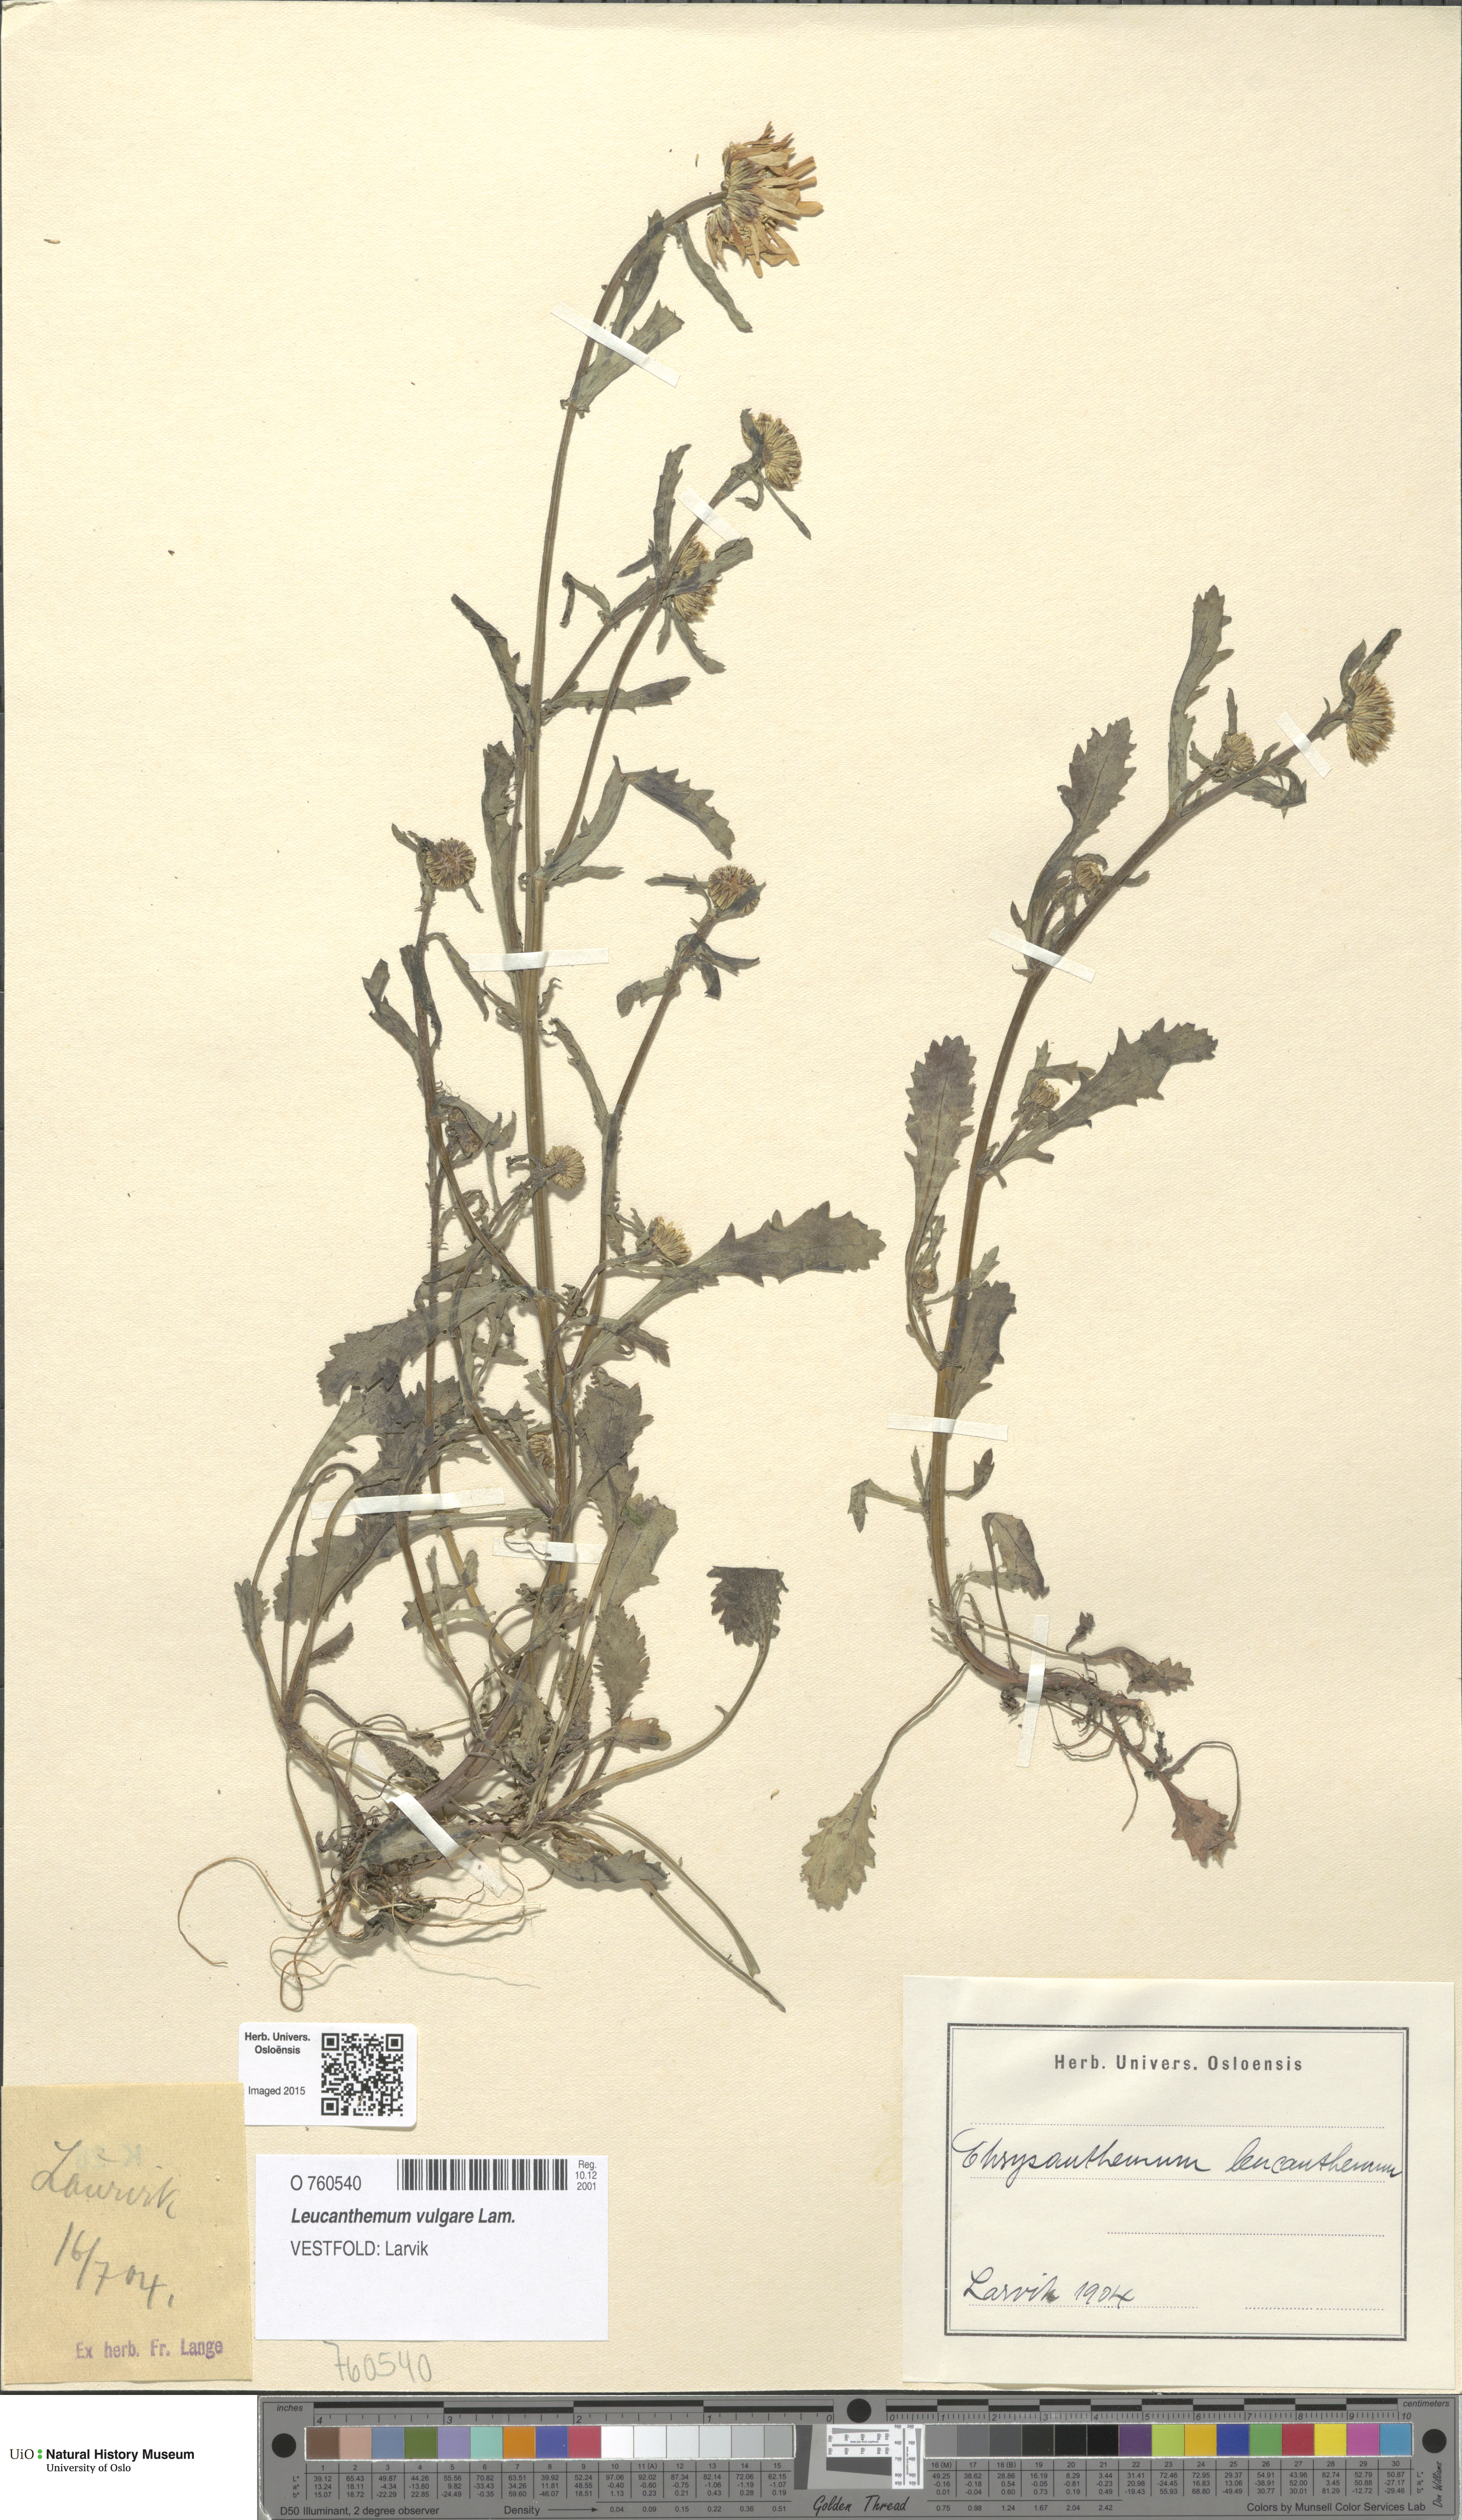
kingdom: Plantae
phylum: Tracheophyta
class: Magnoliopsida
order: Asterales
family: Asteraceae
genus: Leucanthemum
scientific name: Leucanthemum vulgare
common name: Oxeye daisy
